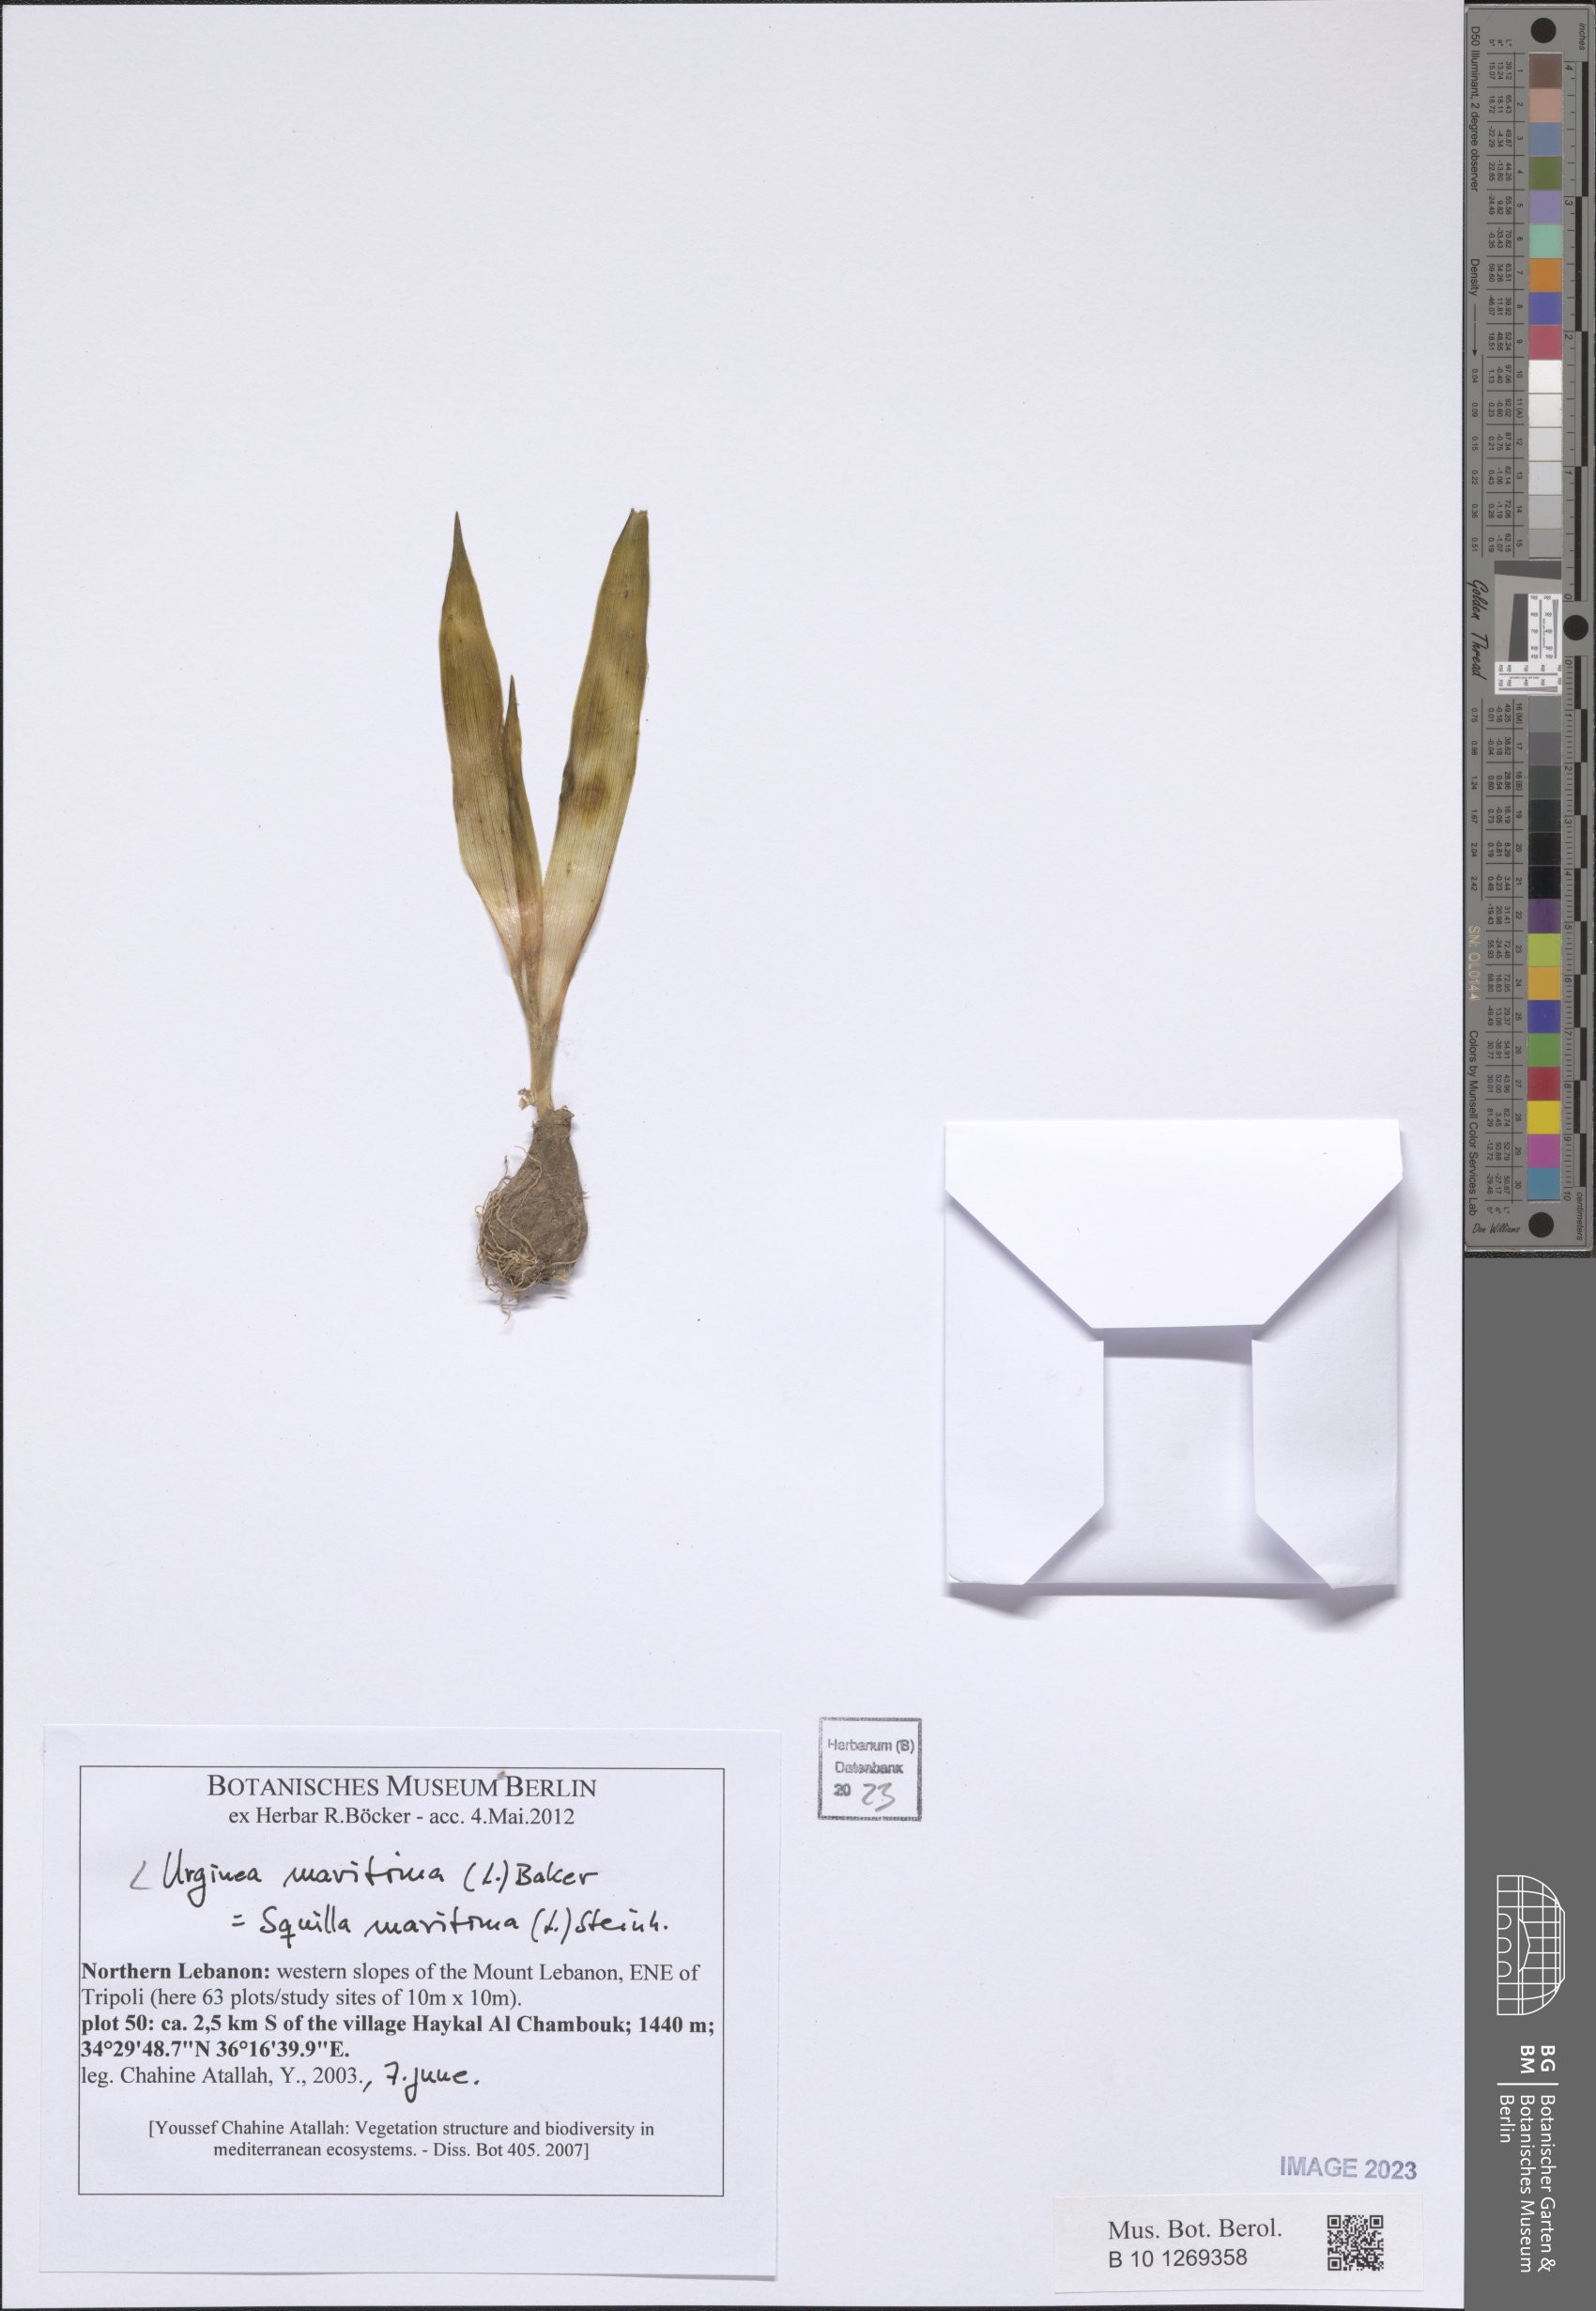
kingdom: Plantae
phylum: Tracheophyta
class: Liliopsida
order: Asparagales
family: Asparagaceae
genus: Drimia
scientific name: Drimia maritima
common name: Maritime squill
